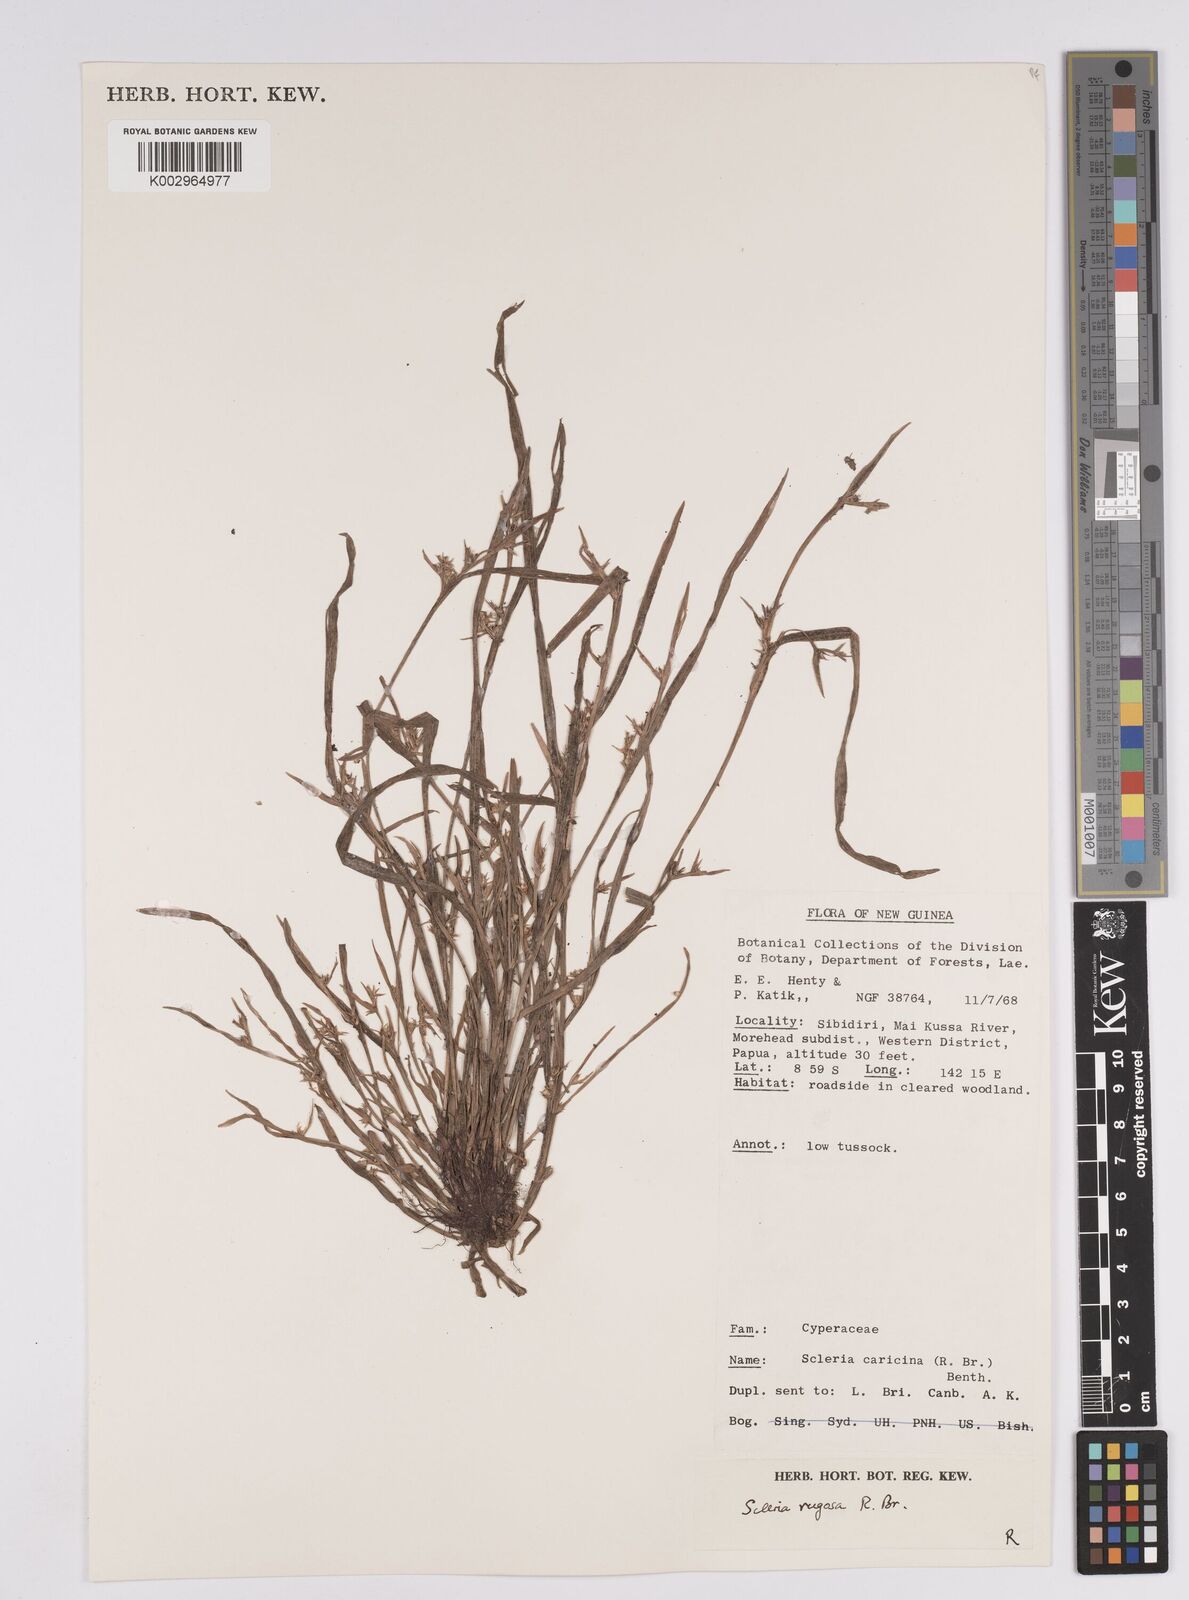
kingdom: Plantae
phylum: Tracheophyta
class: Liliopsida
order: Poales
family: Cyperaceae
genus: Scleria
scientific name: Scleria rugosa
